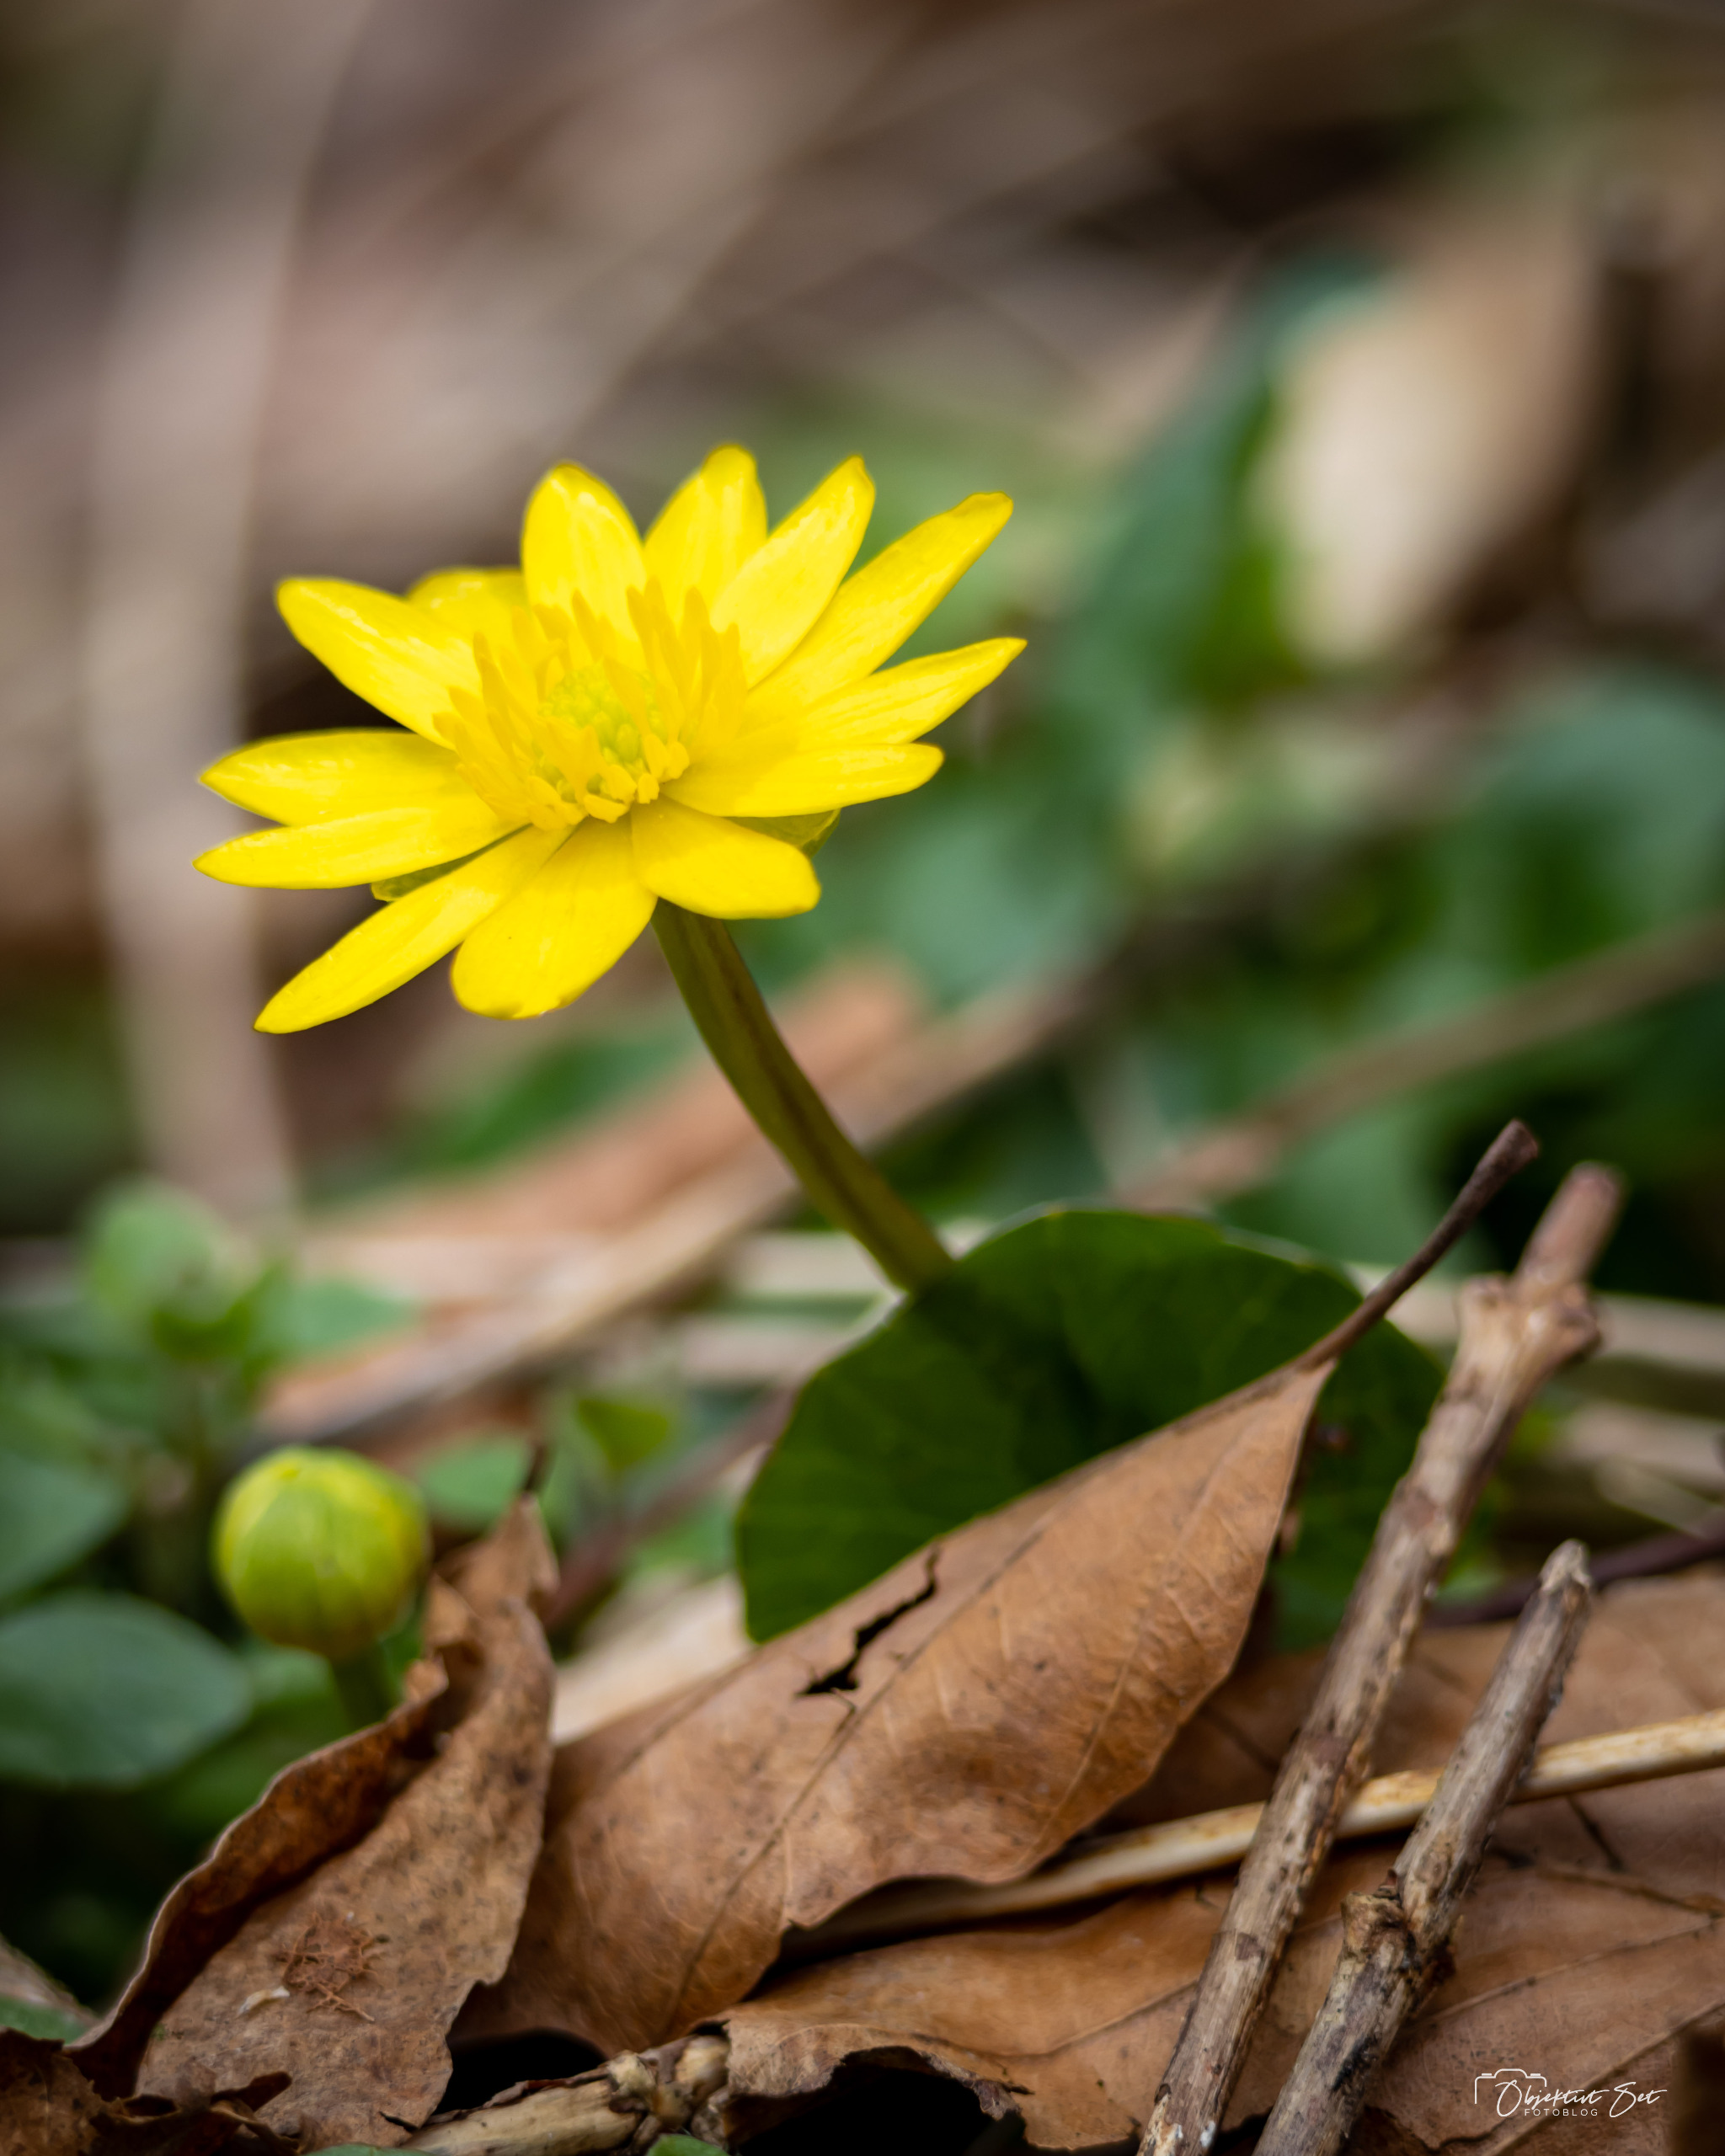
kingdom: Plantae
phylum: Tracheophyta
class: Magnoliopsida
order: Ranunculales
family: Ranunculaceae
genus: Ficaria
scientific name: Ficaria verna
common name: Vorterod
